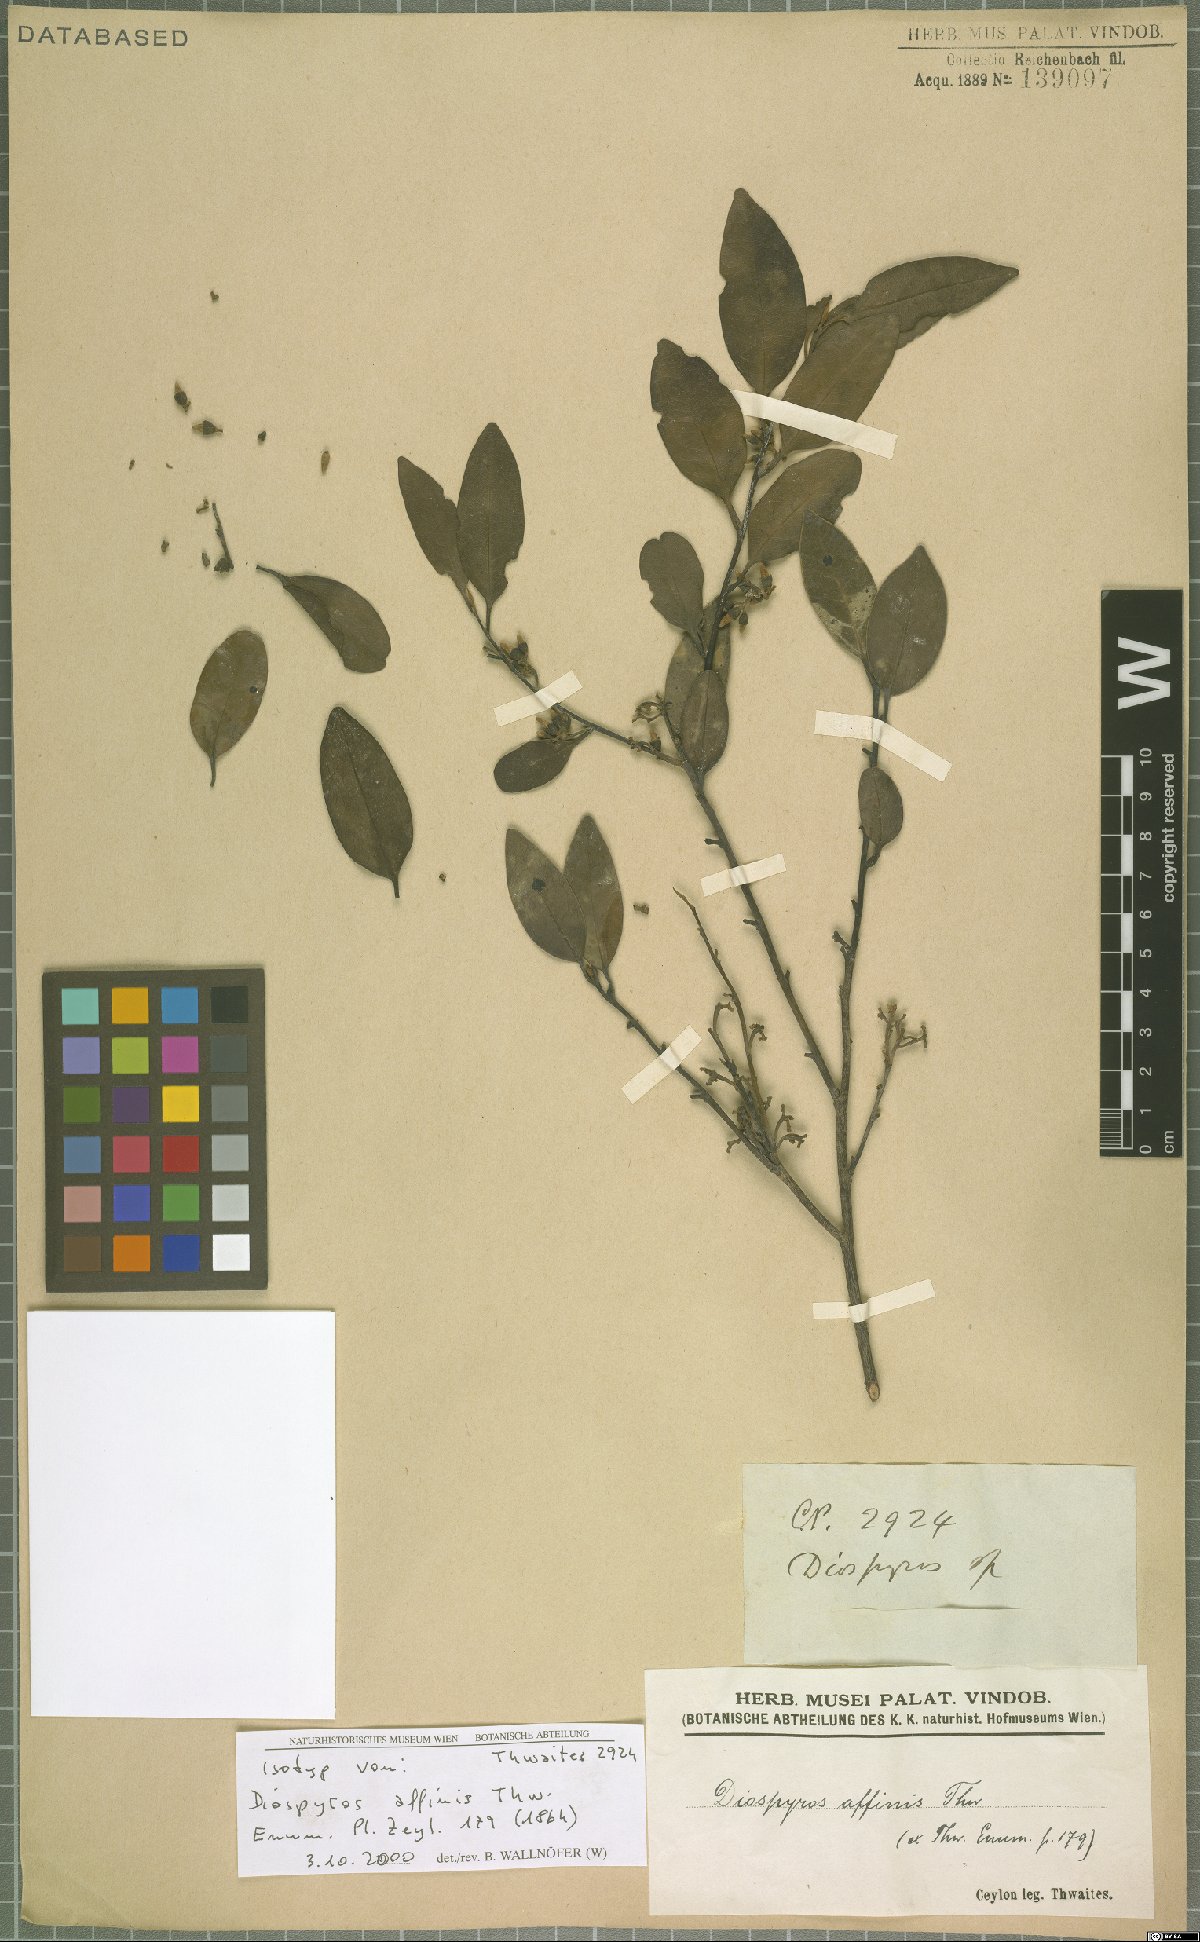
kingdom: Plantae
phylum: Tracheophyta
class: Magnoliopsida
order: Ericales
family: Ebenaceae
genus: Diospyros
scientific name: Diospyros affinis
